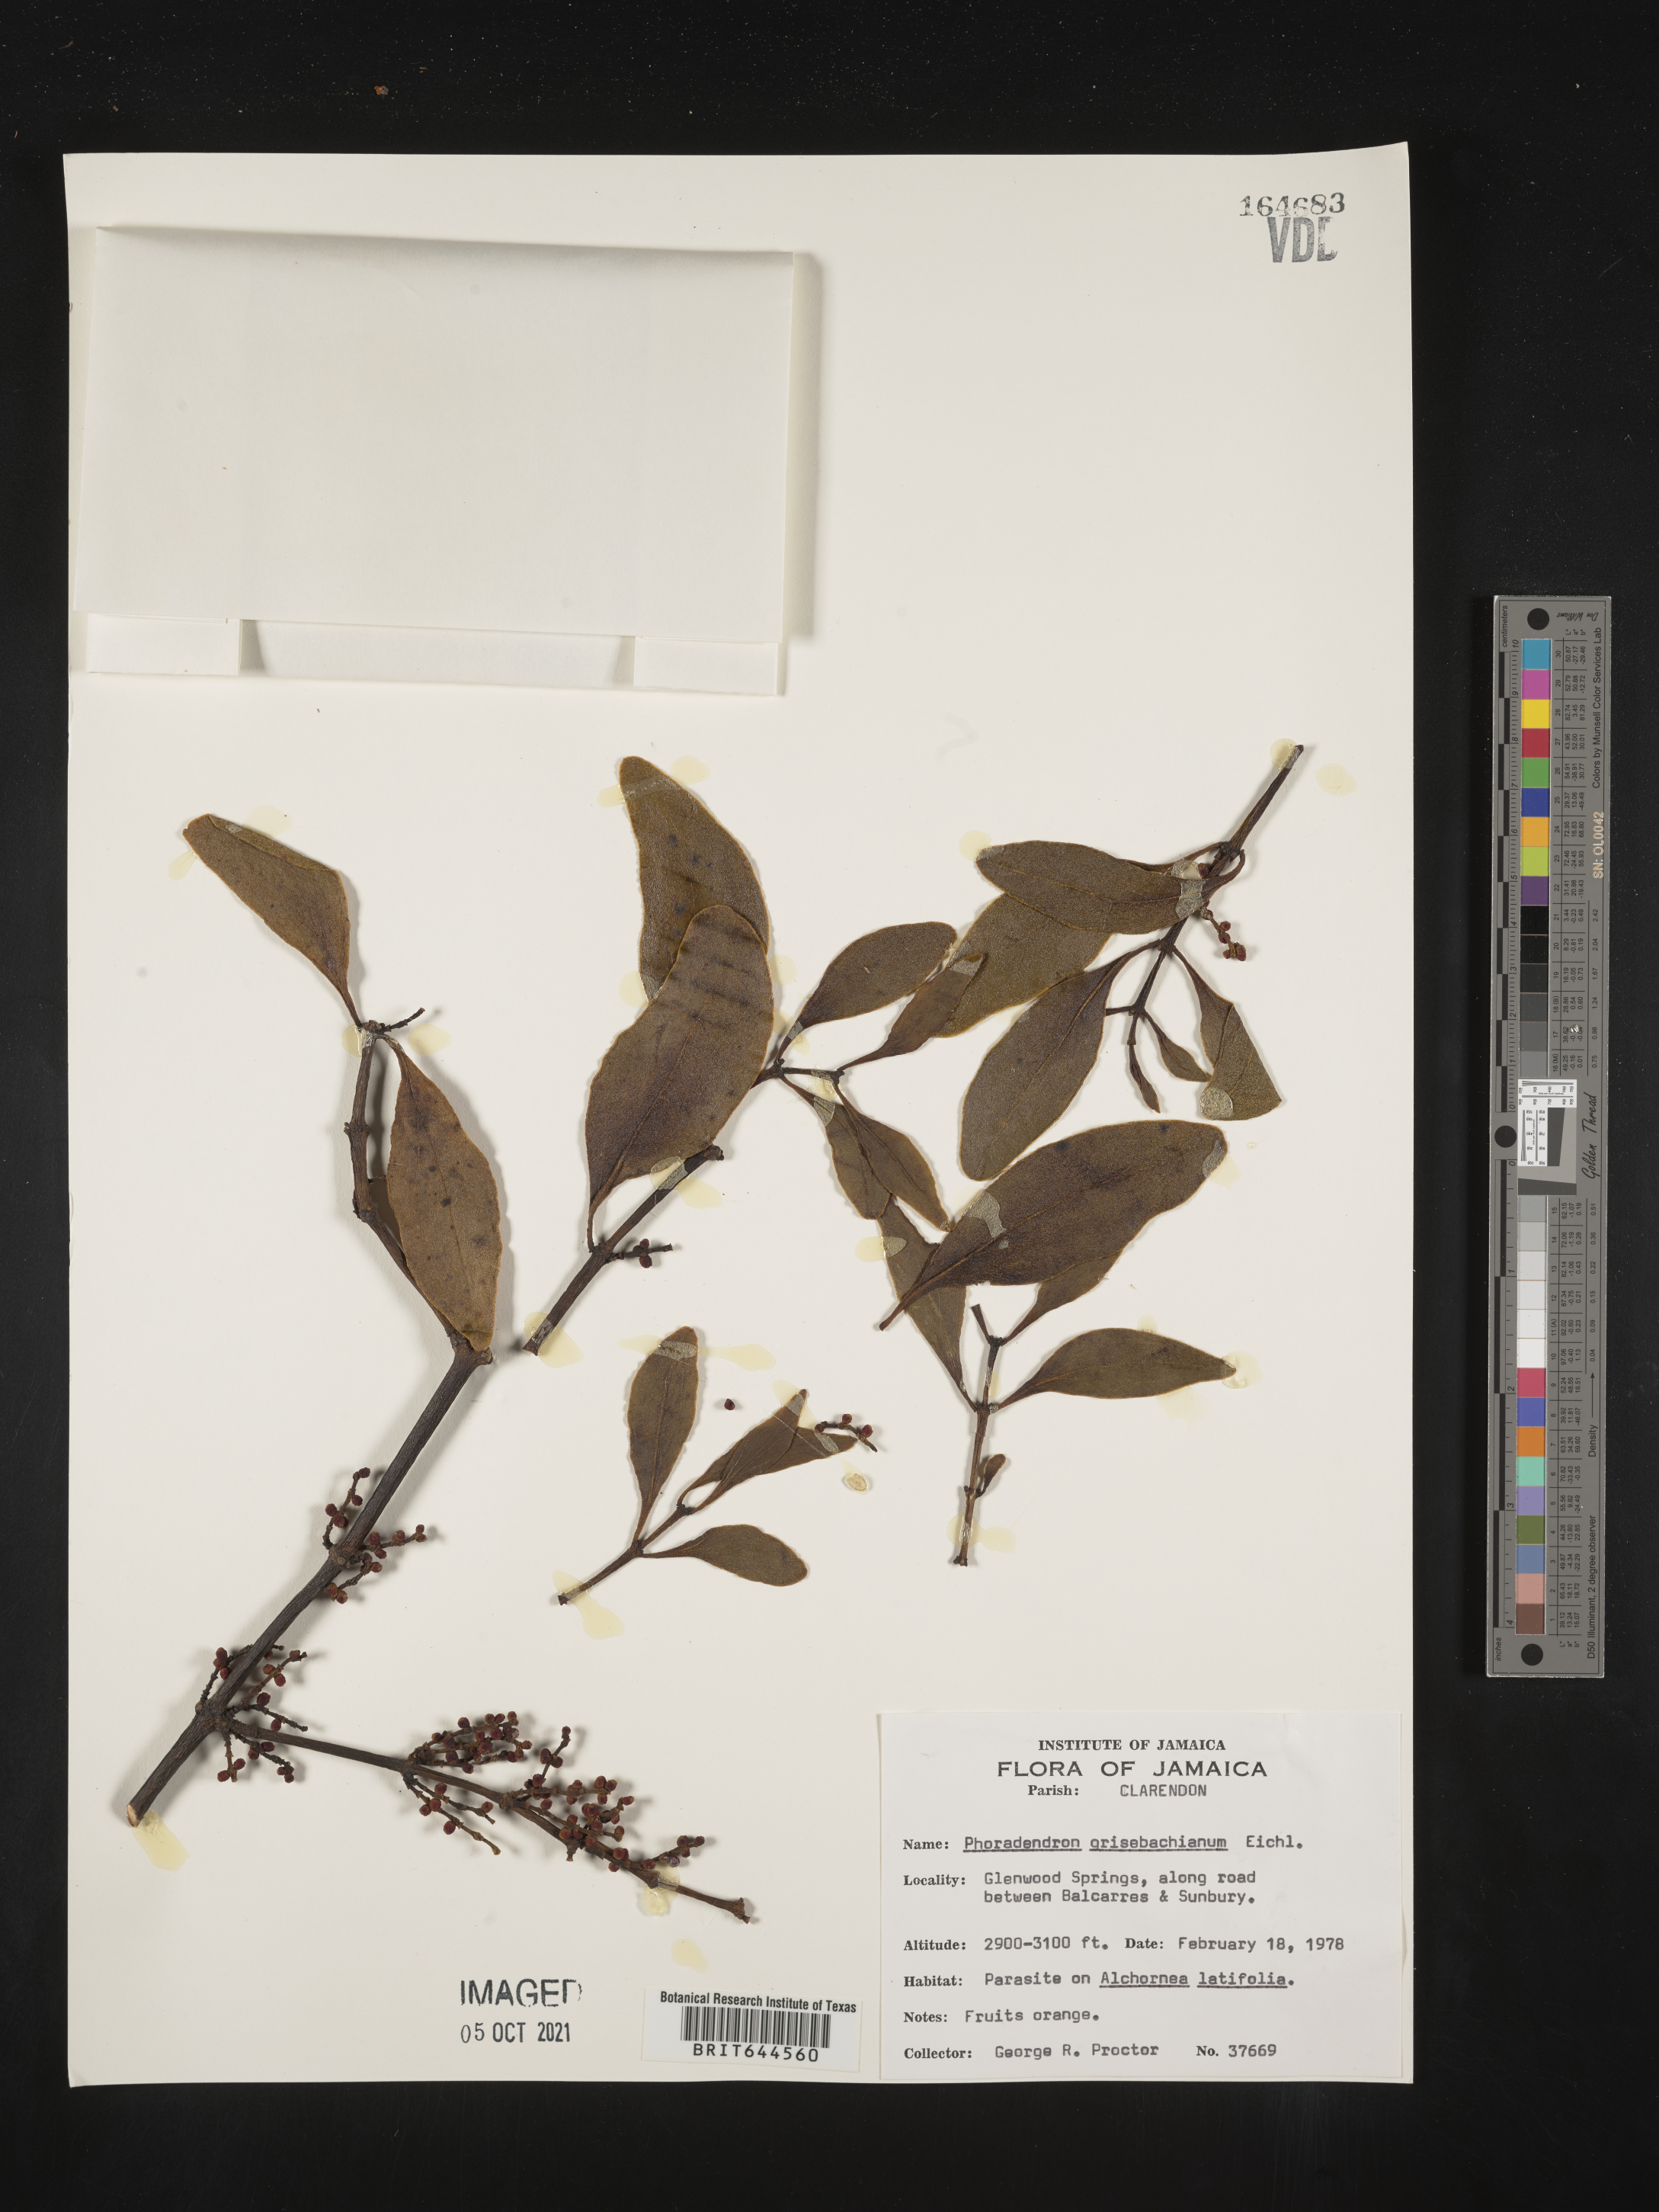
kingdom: Plantae
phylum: Tracheophyta
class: Magnoliopsida
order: Santalales
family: Viscaceae
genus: Phoradendron
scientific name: Phoradendron
